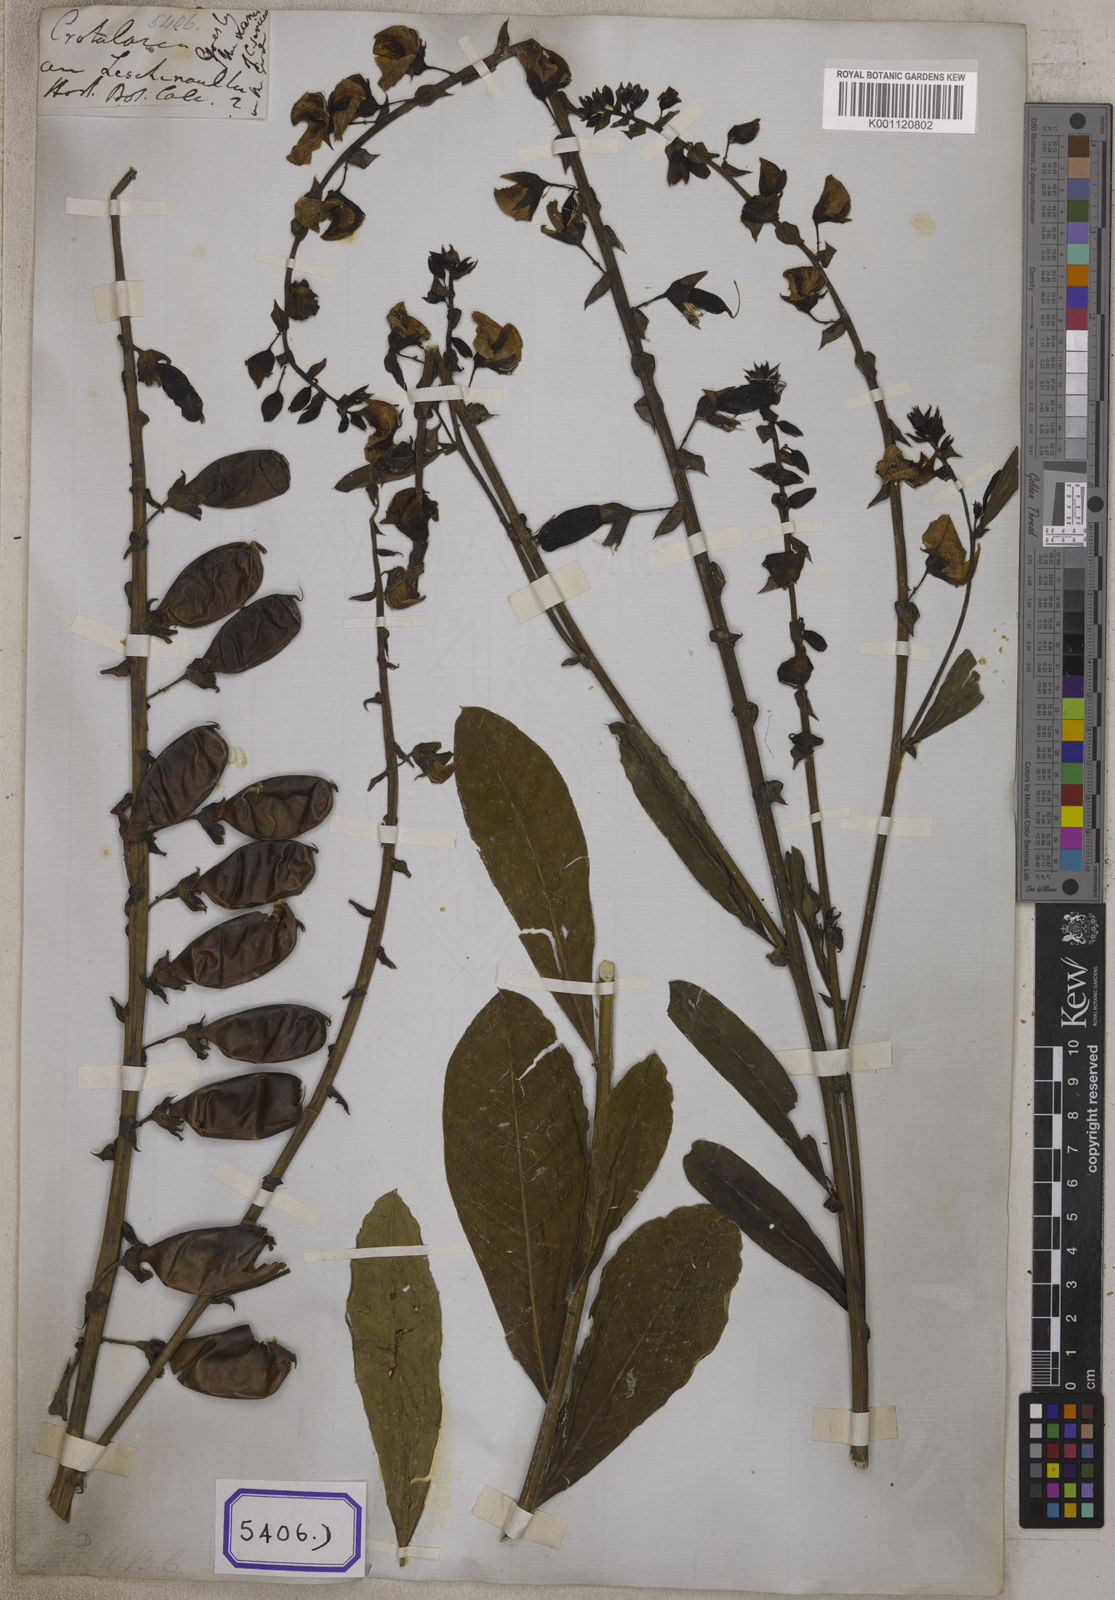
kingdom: Plantae
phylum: Tracheophyta
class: Magnoliopsida
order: Fabales
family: Fabaceae
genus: Crotalaria
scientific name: Crotalaria spectabilis
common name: Showy rattlebox
